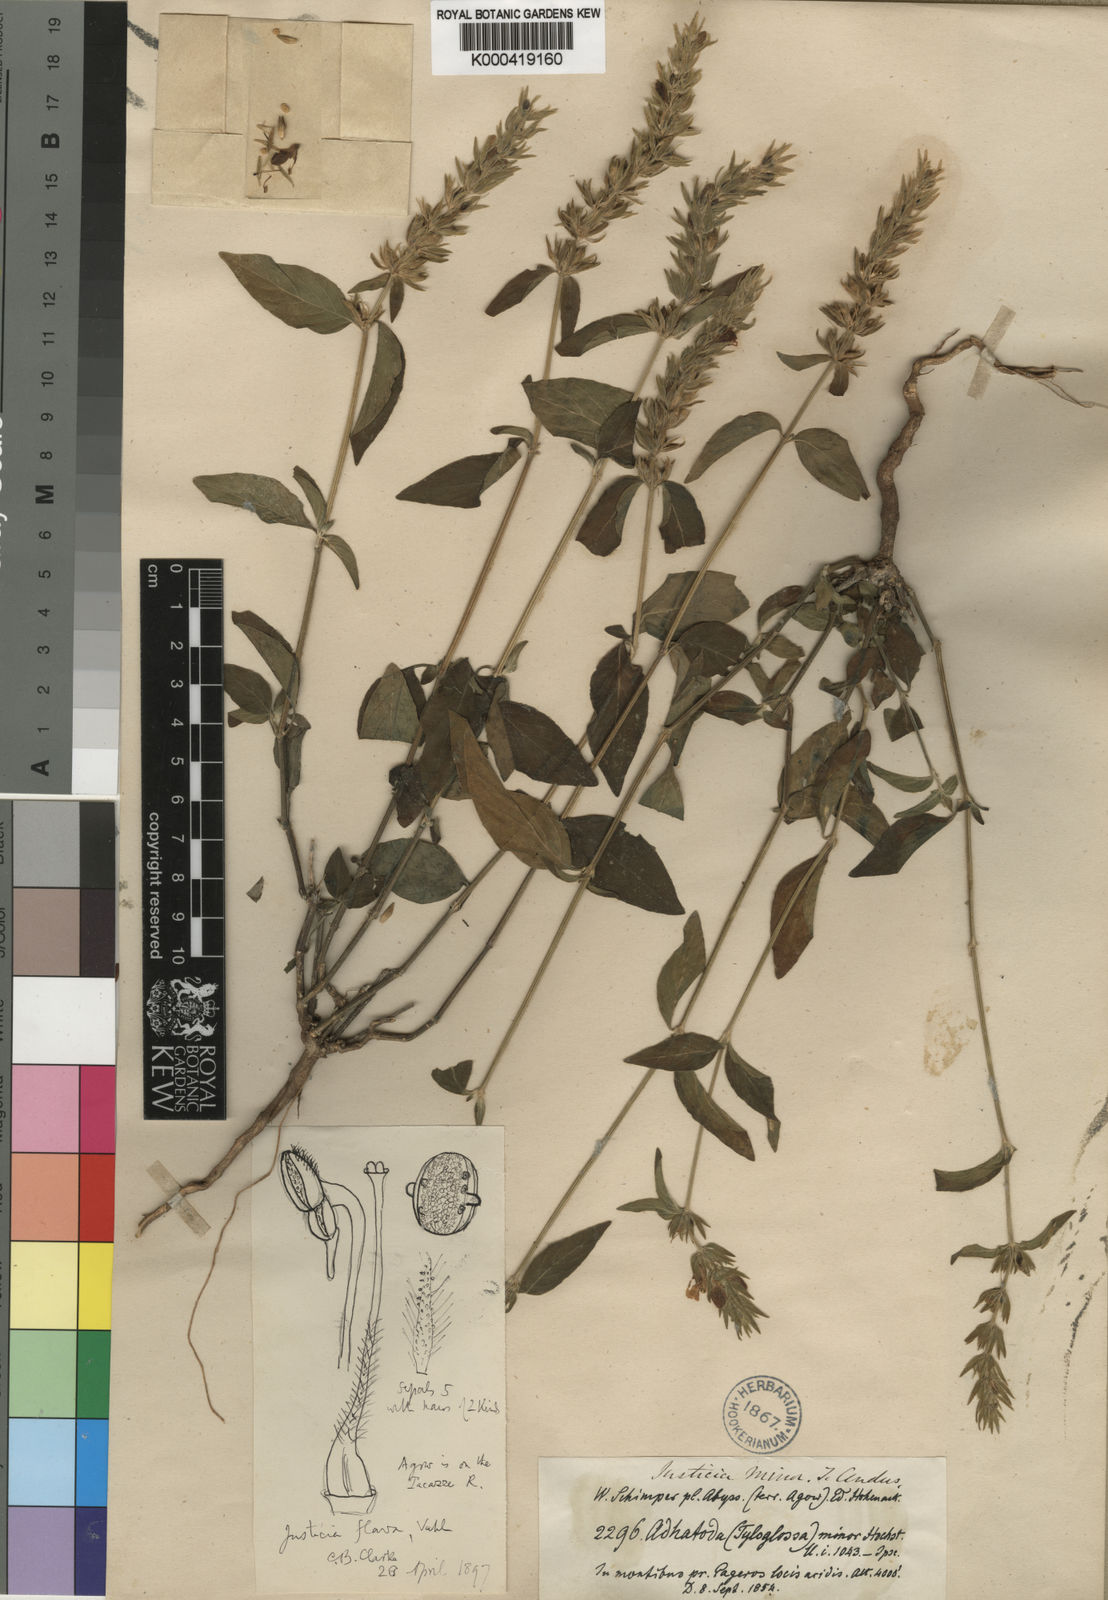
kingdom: Plantae
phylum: Tracheophyta
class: Magnoliopsida
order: Lamiales
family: Acanthaceae
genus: Justicia
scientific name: Justicia flava
